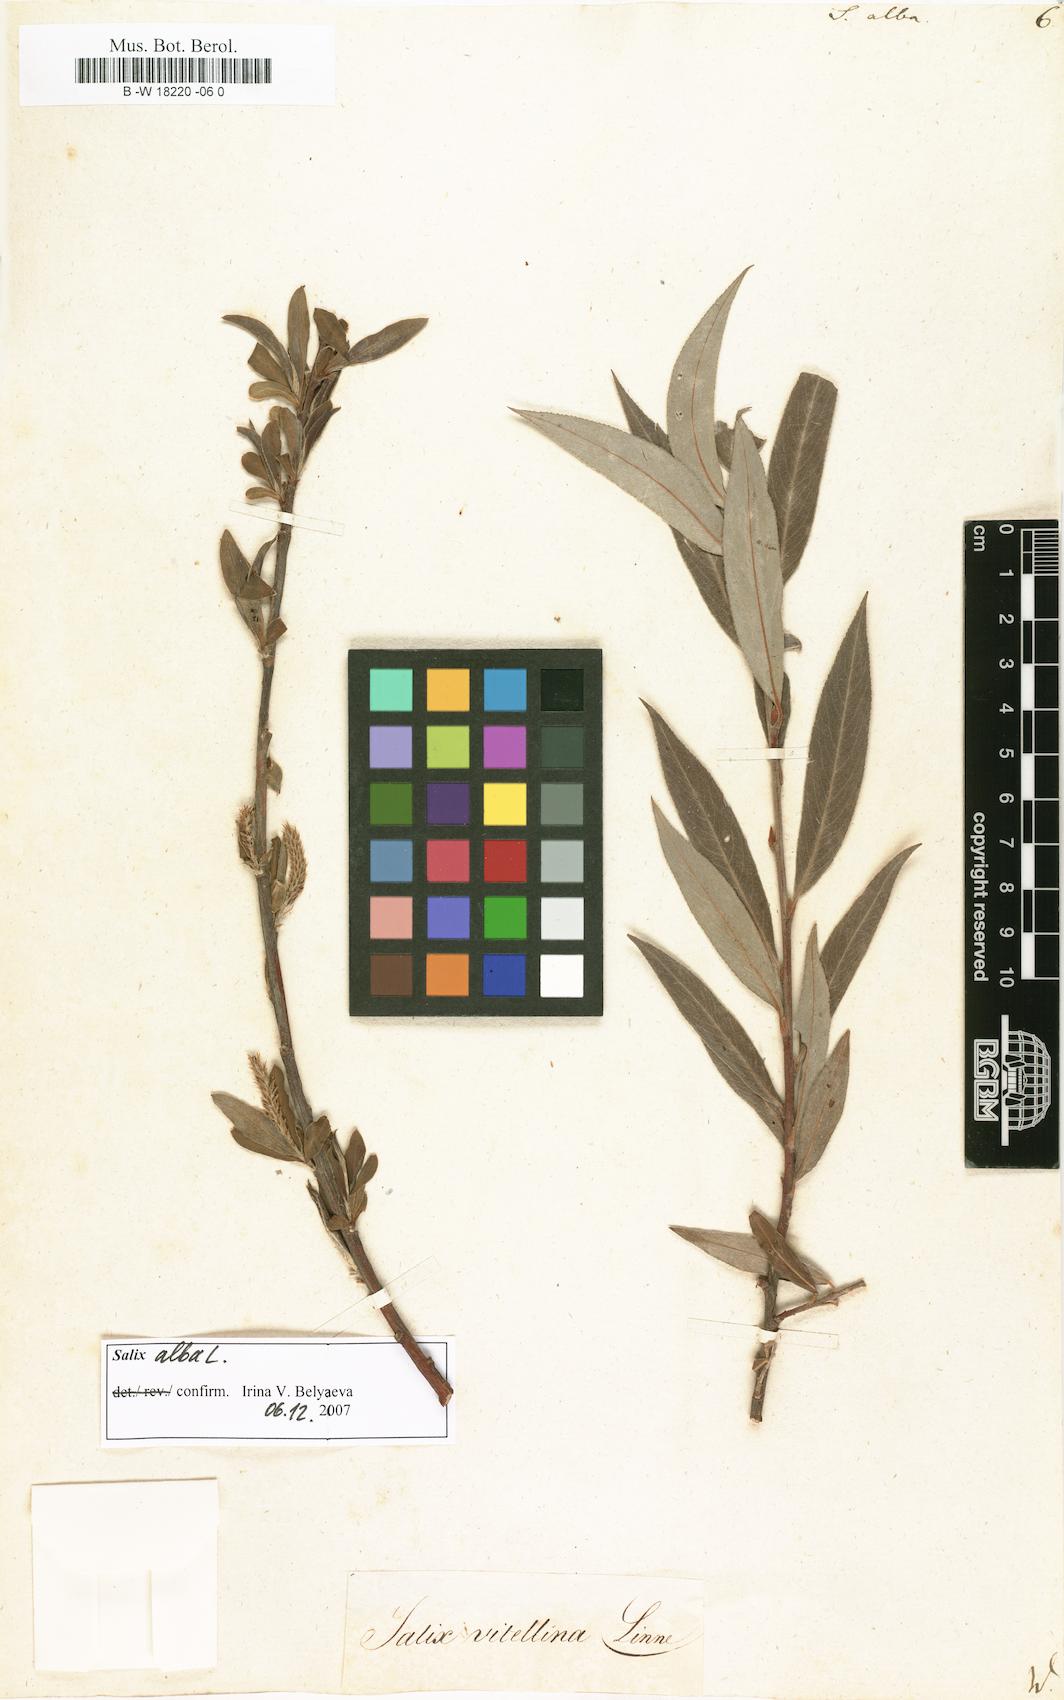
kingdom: Plantae
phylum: Tracheophyta
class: Magnoliopsida
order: Malpighiales
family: Salicaceae
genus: Salix
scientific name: Salix alba
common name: White willow
